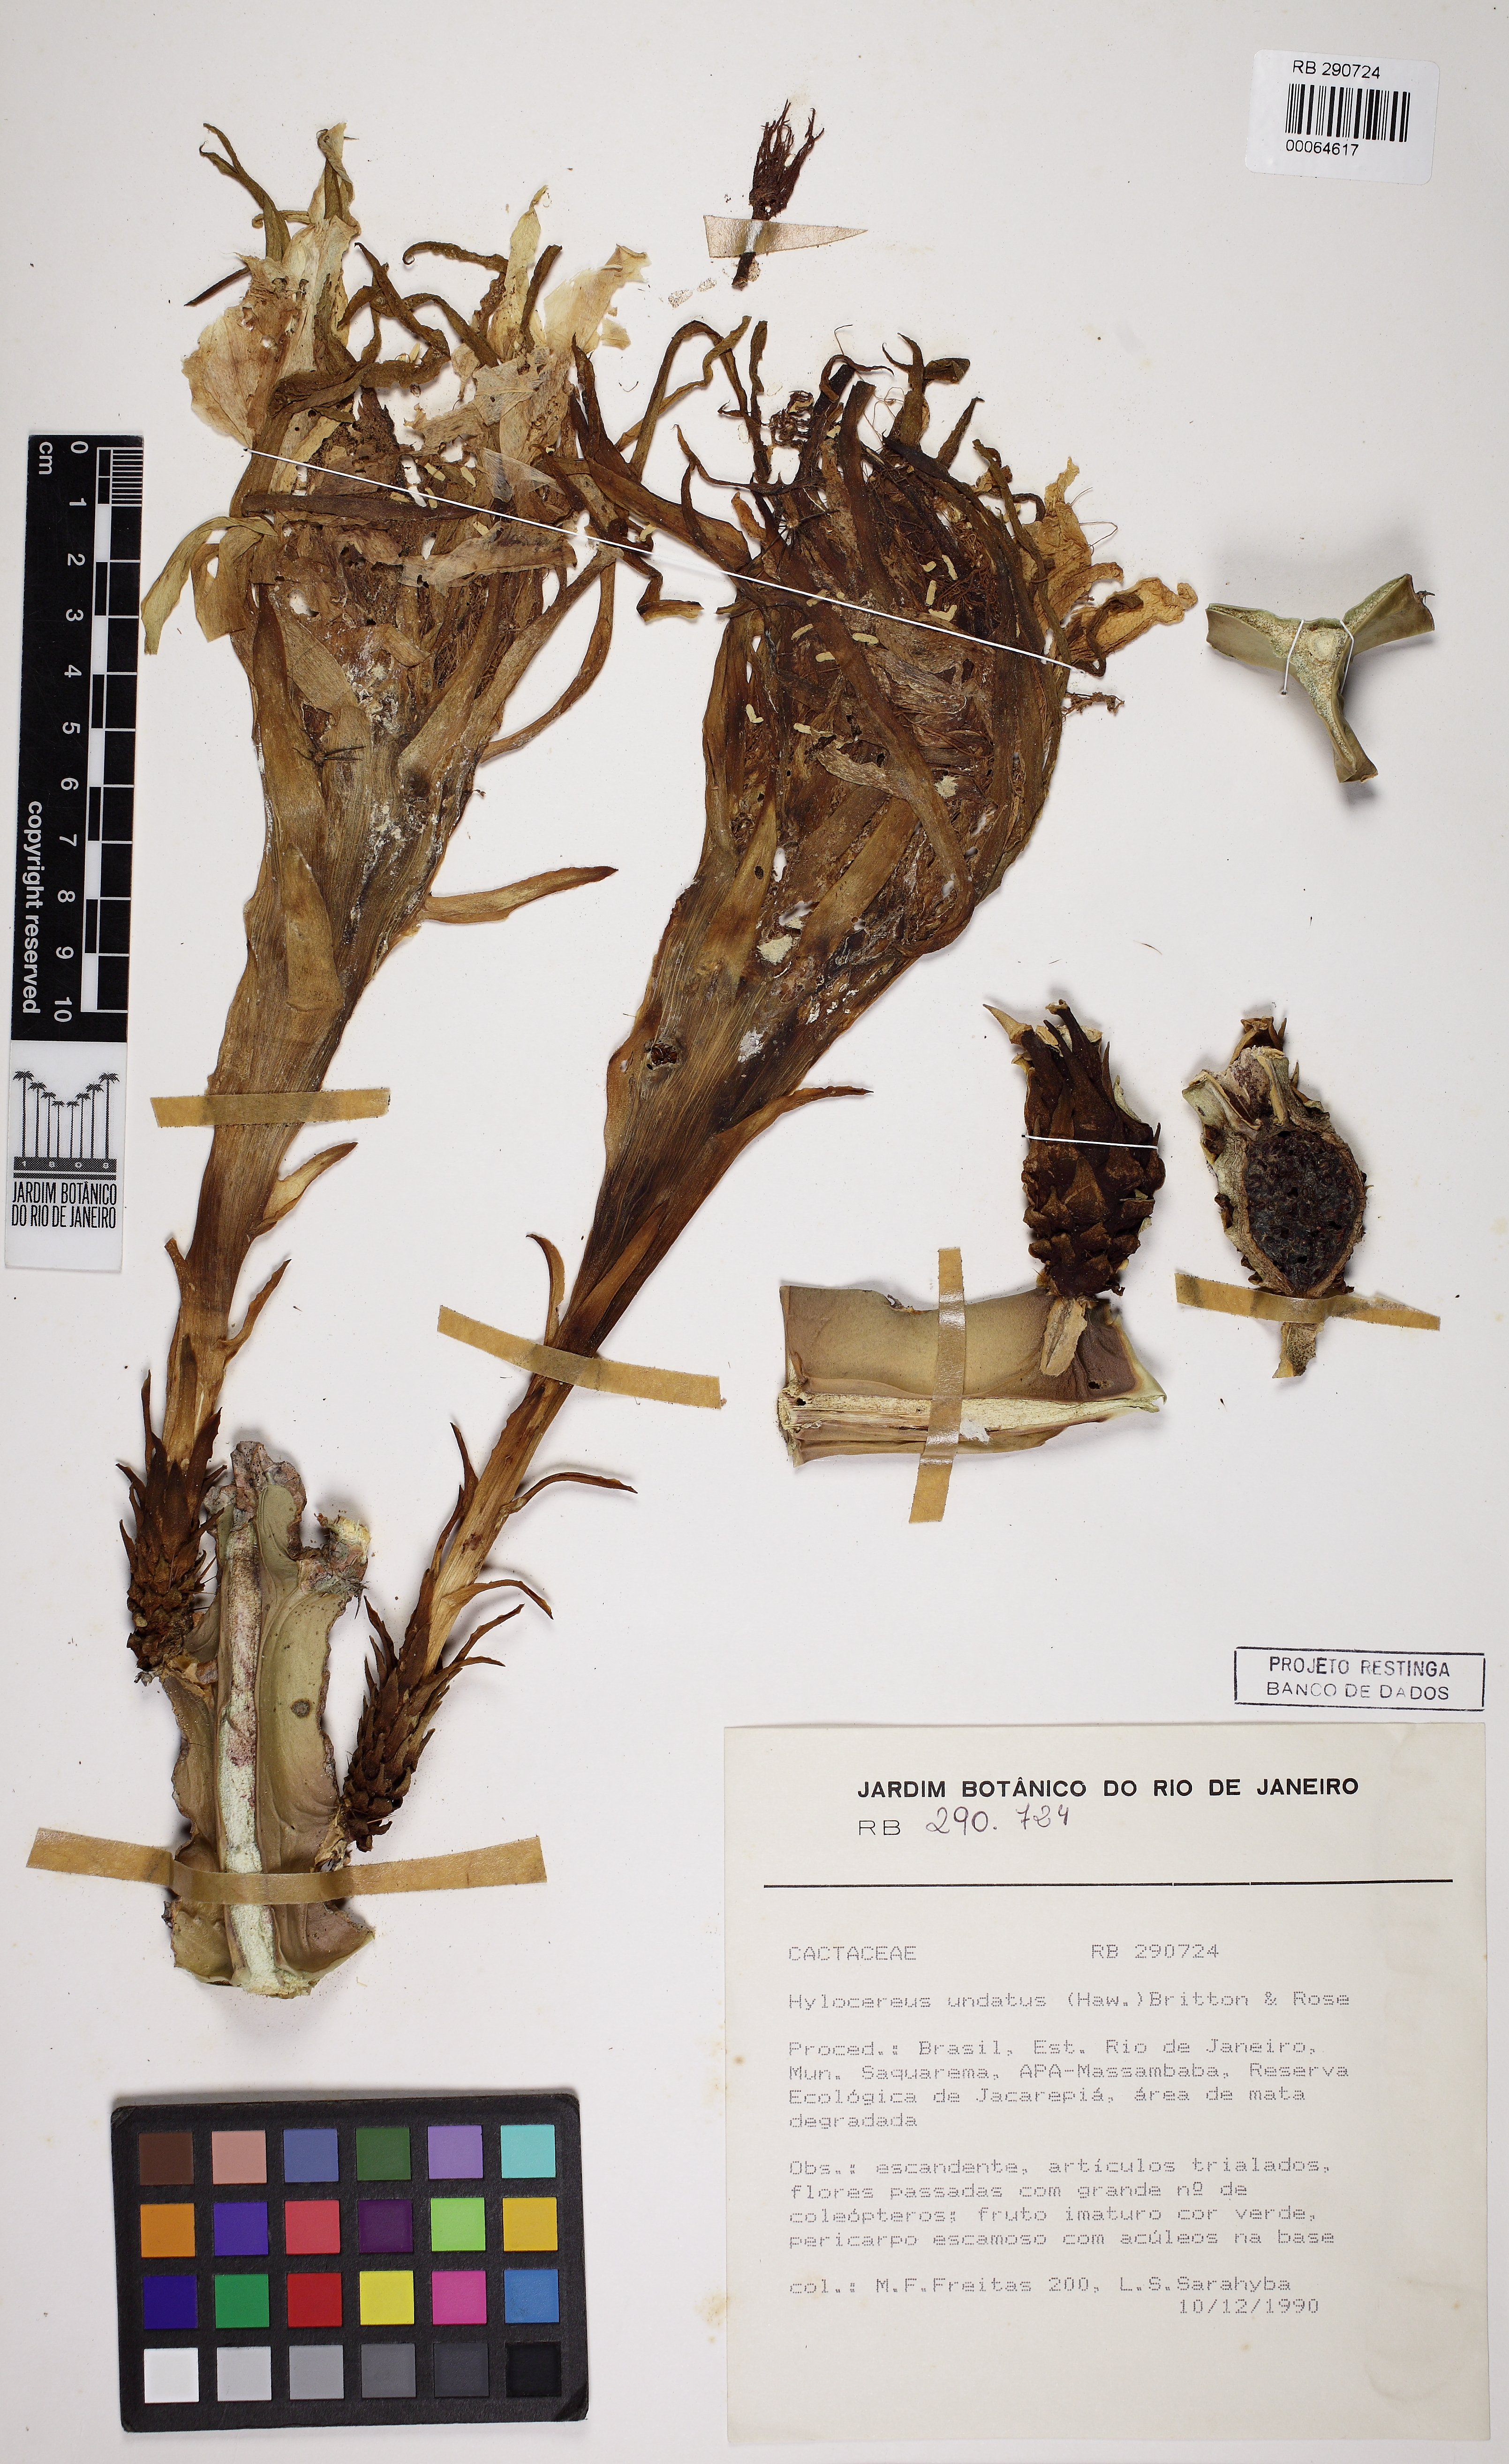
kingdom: Plantae
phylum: Tracheophyta
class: Magnoliopsida
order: Caryophyllales
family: Cactaceae
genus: Selenicereus
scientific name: Selenicereus undatus
